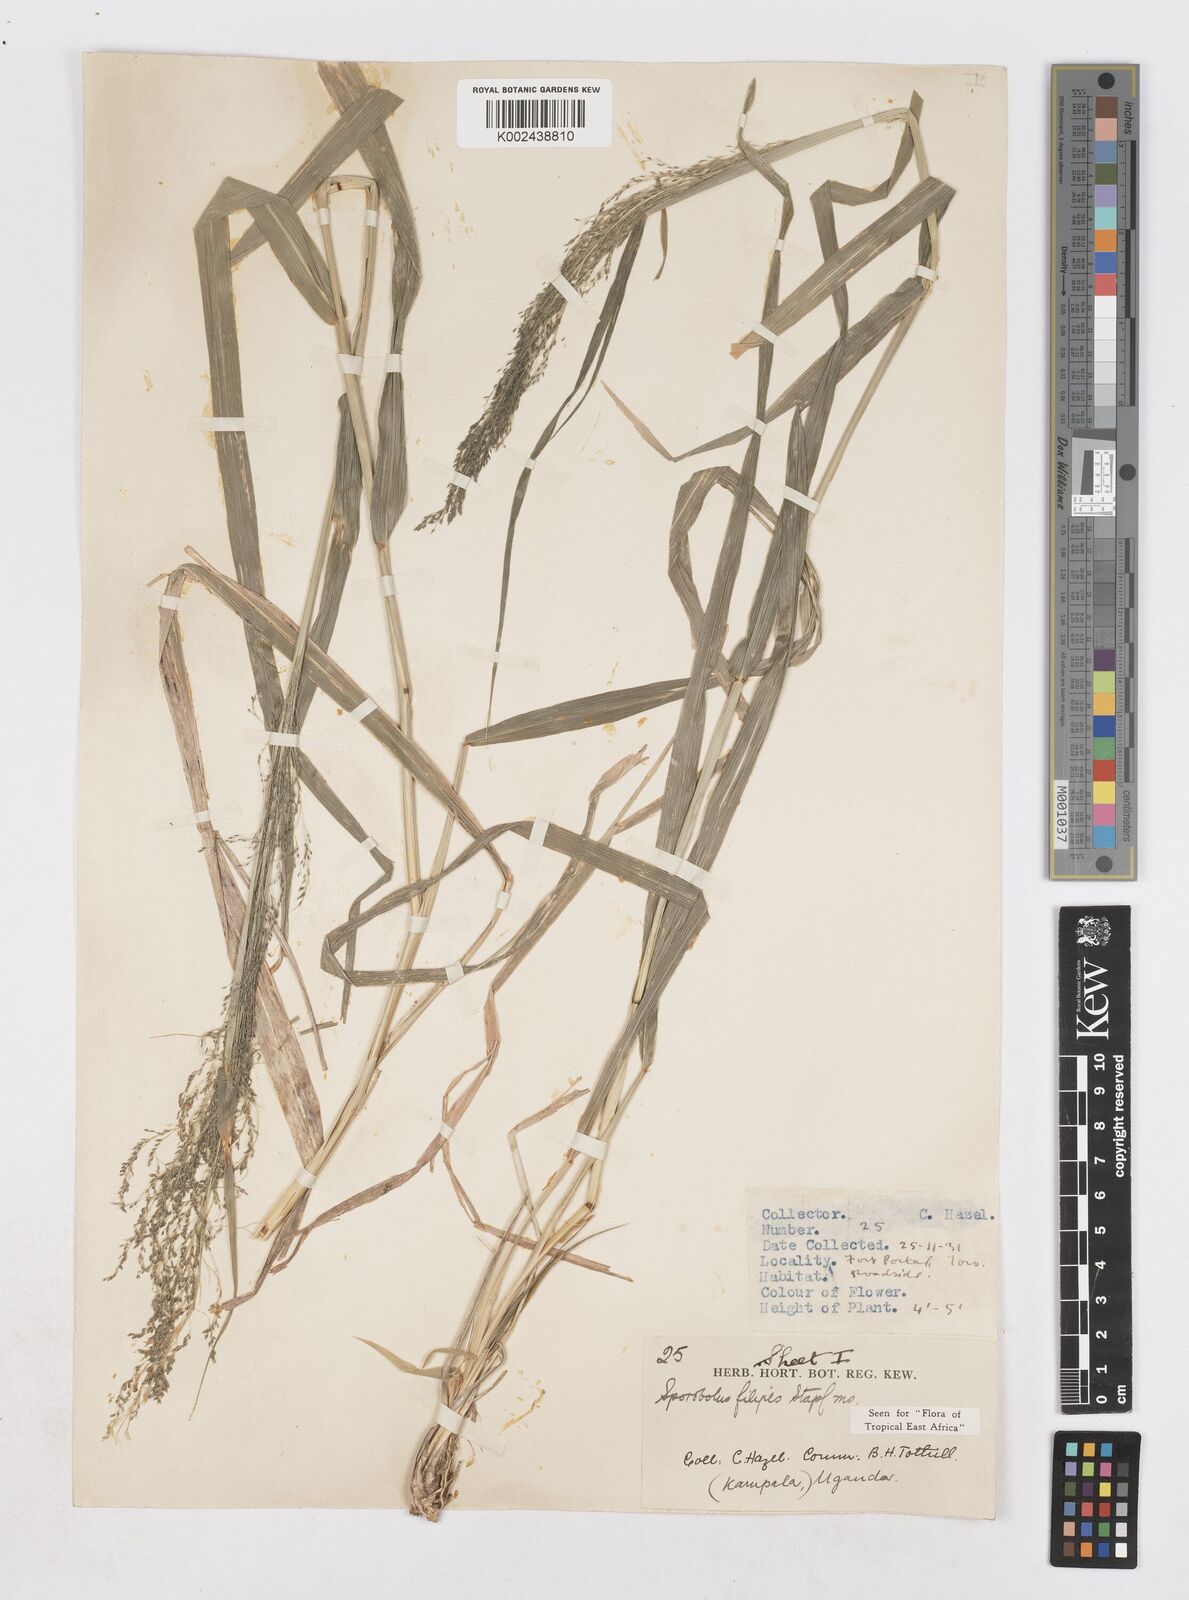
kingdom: Plantae
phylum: Tracheophyta
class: Liliopsida
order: Poales
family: Poaceae
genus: Sporobolus
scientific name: Sporobolus agrostoides
